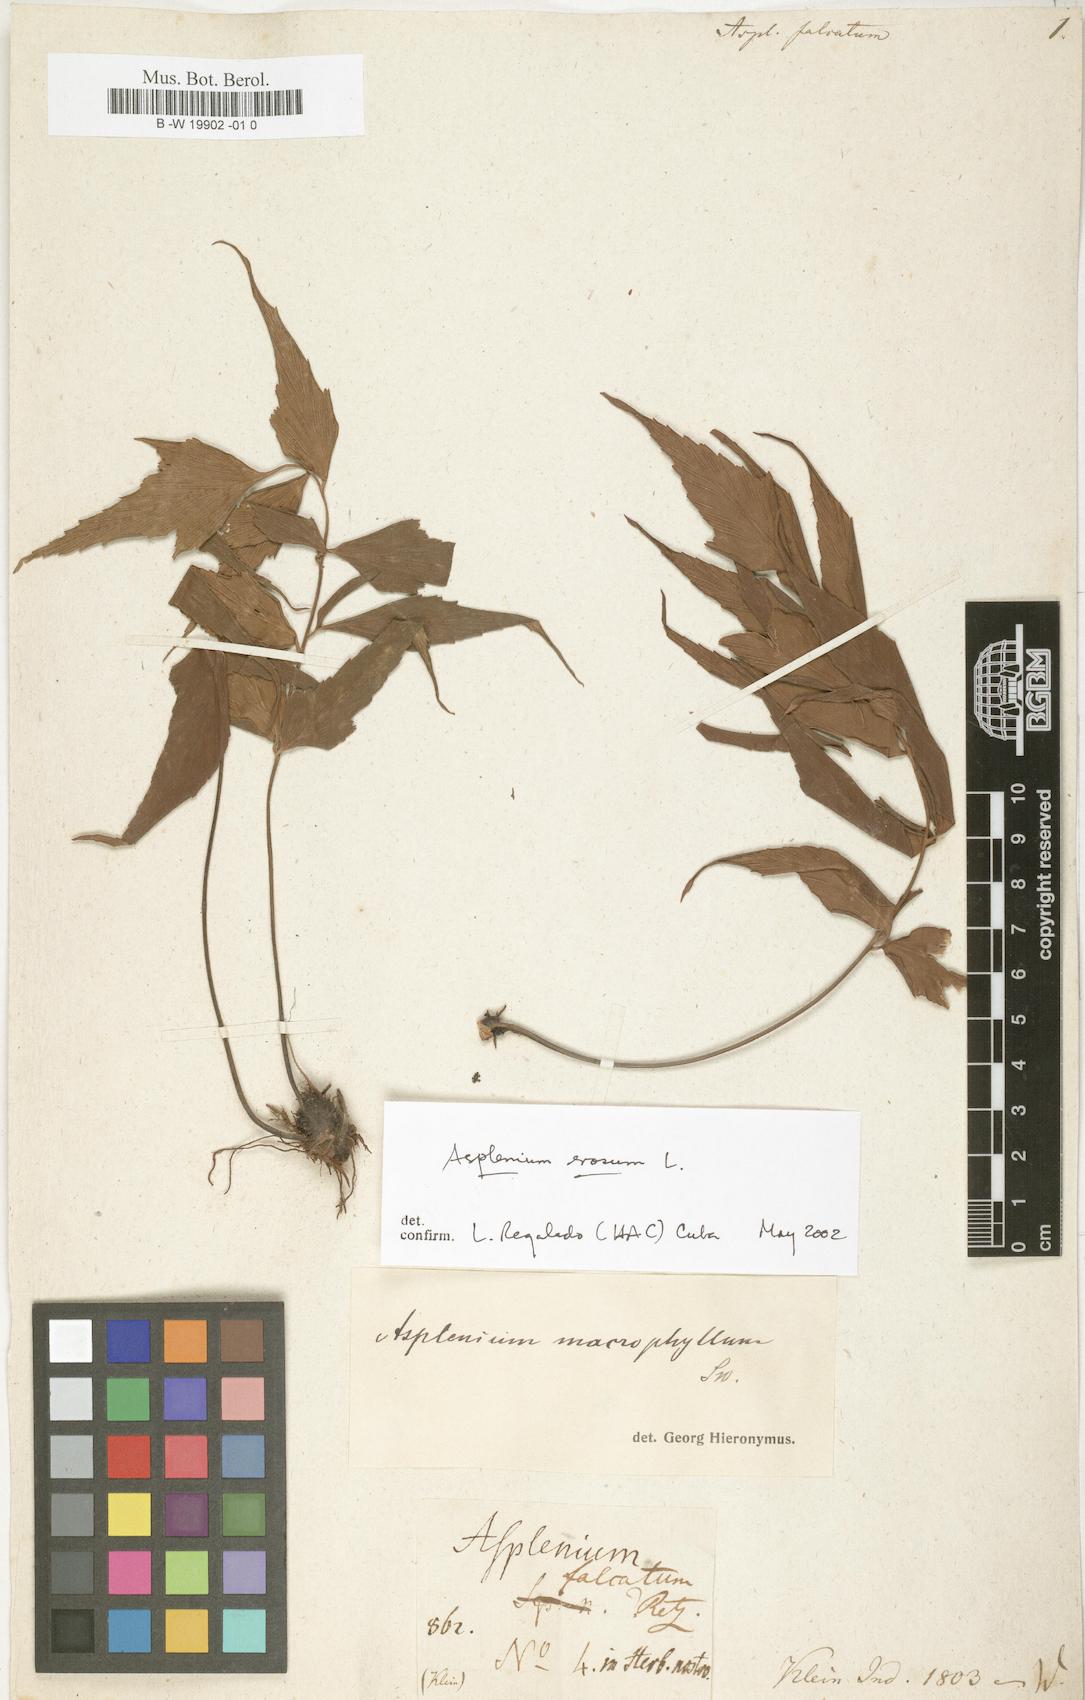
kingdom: Plantae
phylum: Tracheophyta
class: Polypodiopsida
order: Polypodiales
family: Aspleniaceae
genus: Asplenium
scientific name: Asplenium falcatum
